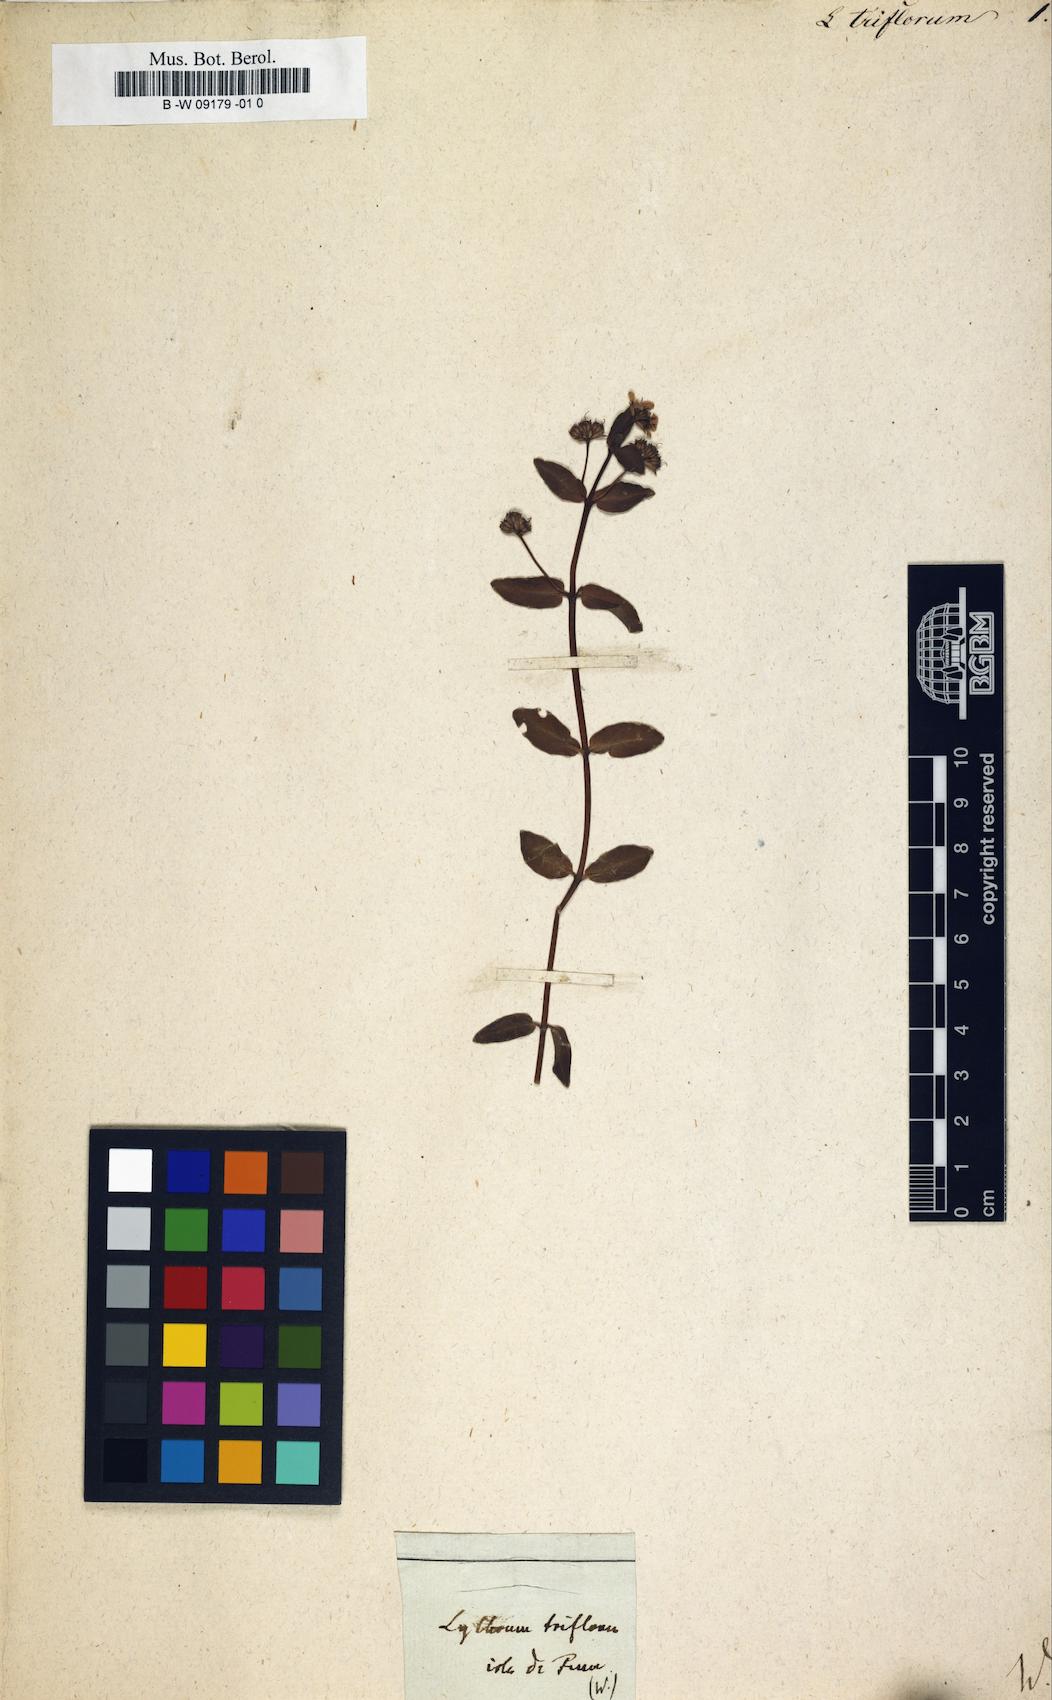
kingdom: Plantae
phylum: Tracheophyta
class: Magnoliopsida
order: Myrtales
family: Lythraceae
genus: Ammannia
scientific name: Ammannia capitellata
